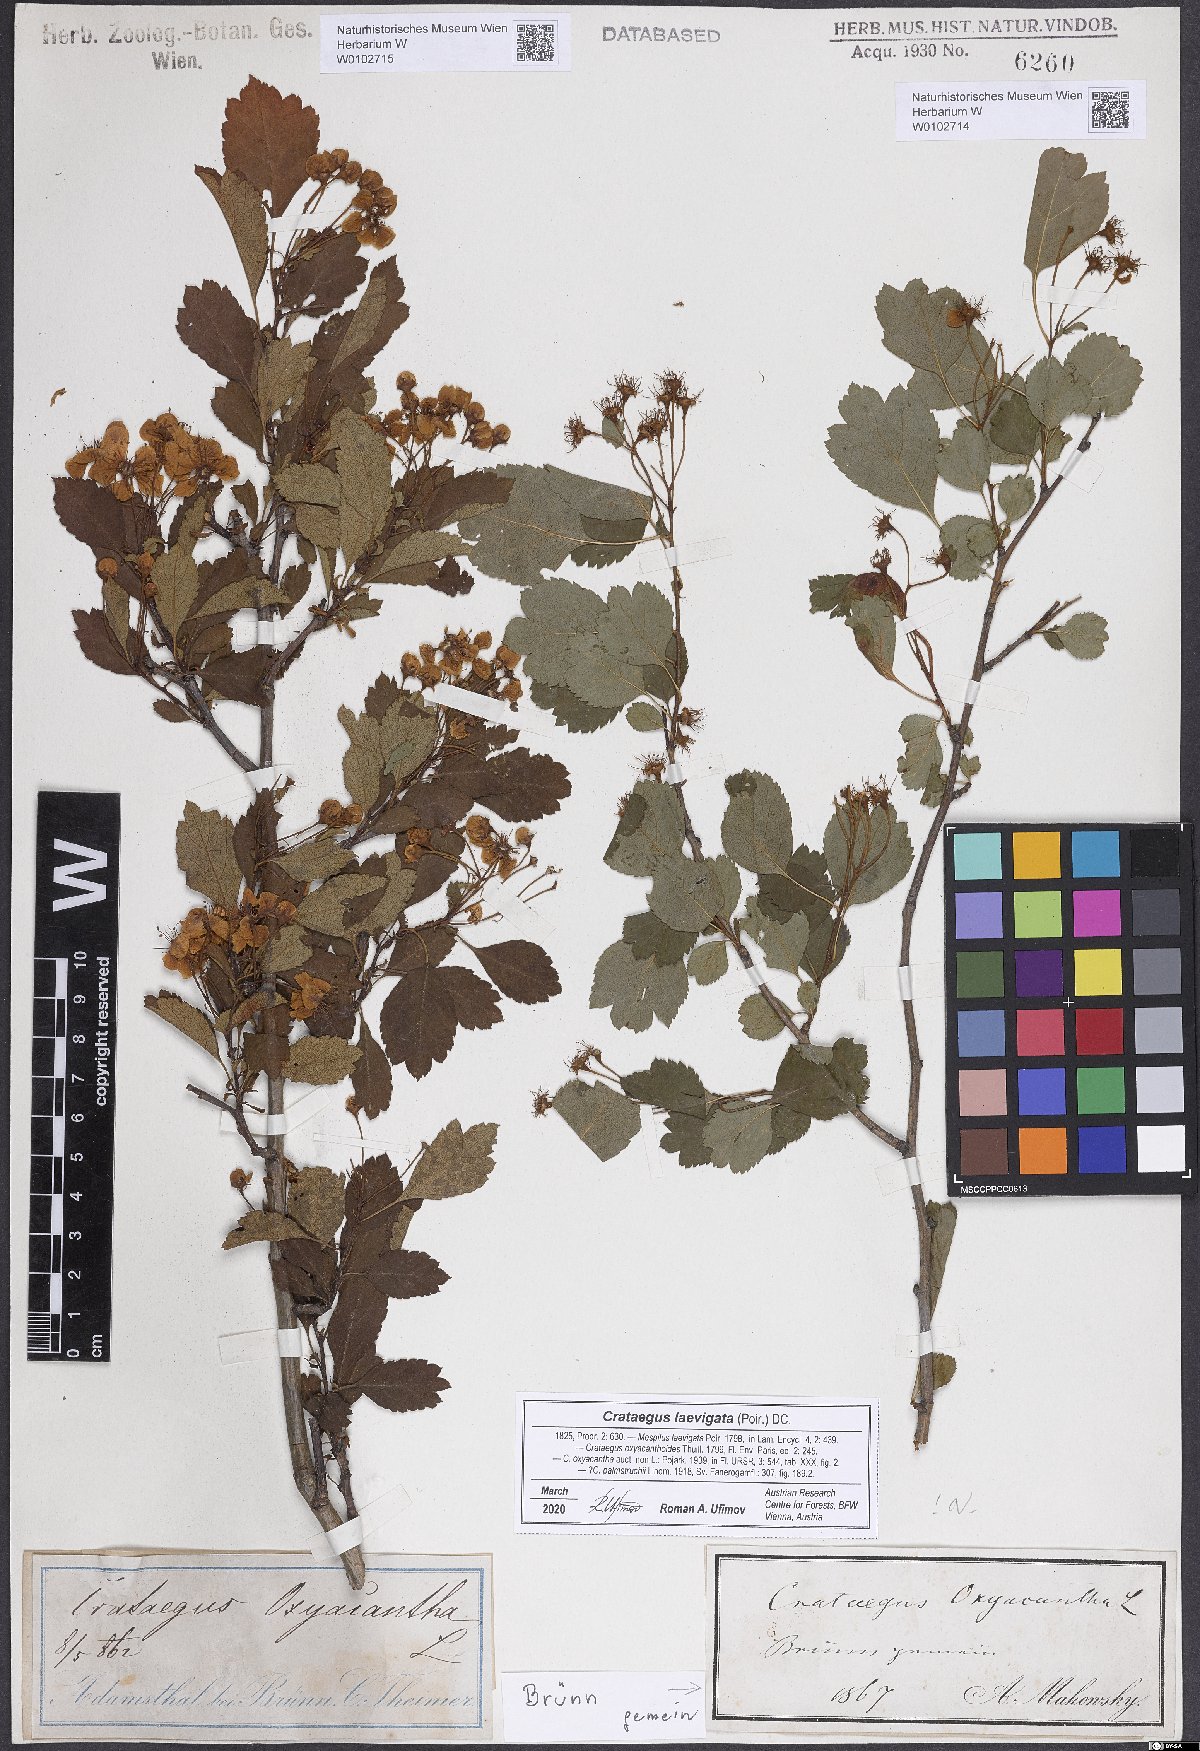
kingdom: Plantae
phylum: Tracheophyta
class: Magnoliopsida
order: Rosales
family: Rosaceae
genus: Crataegus
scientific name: Crataegus laevigata
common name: Midland hawthorn
